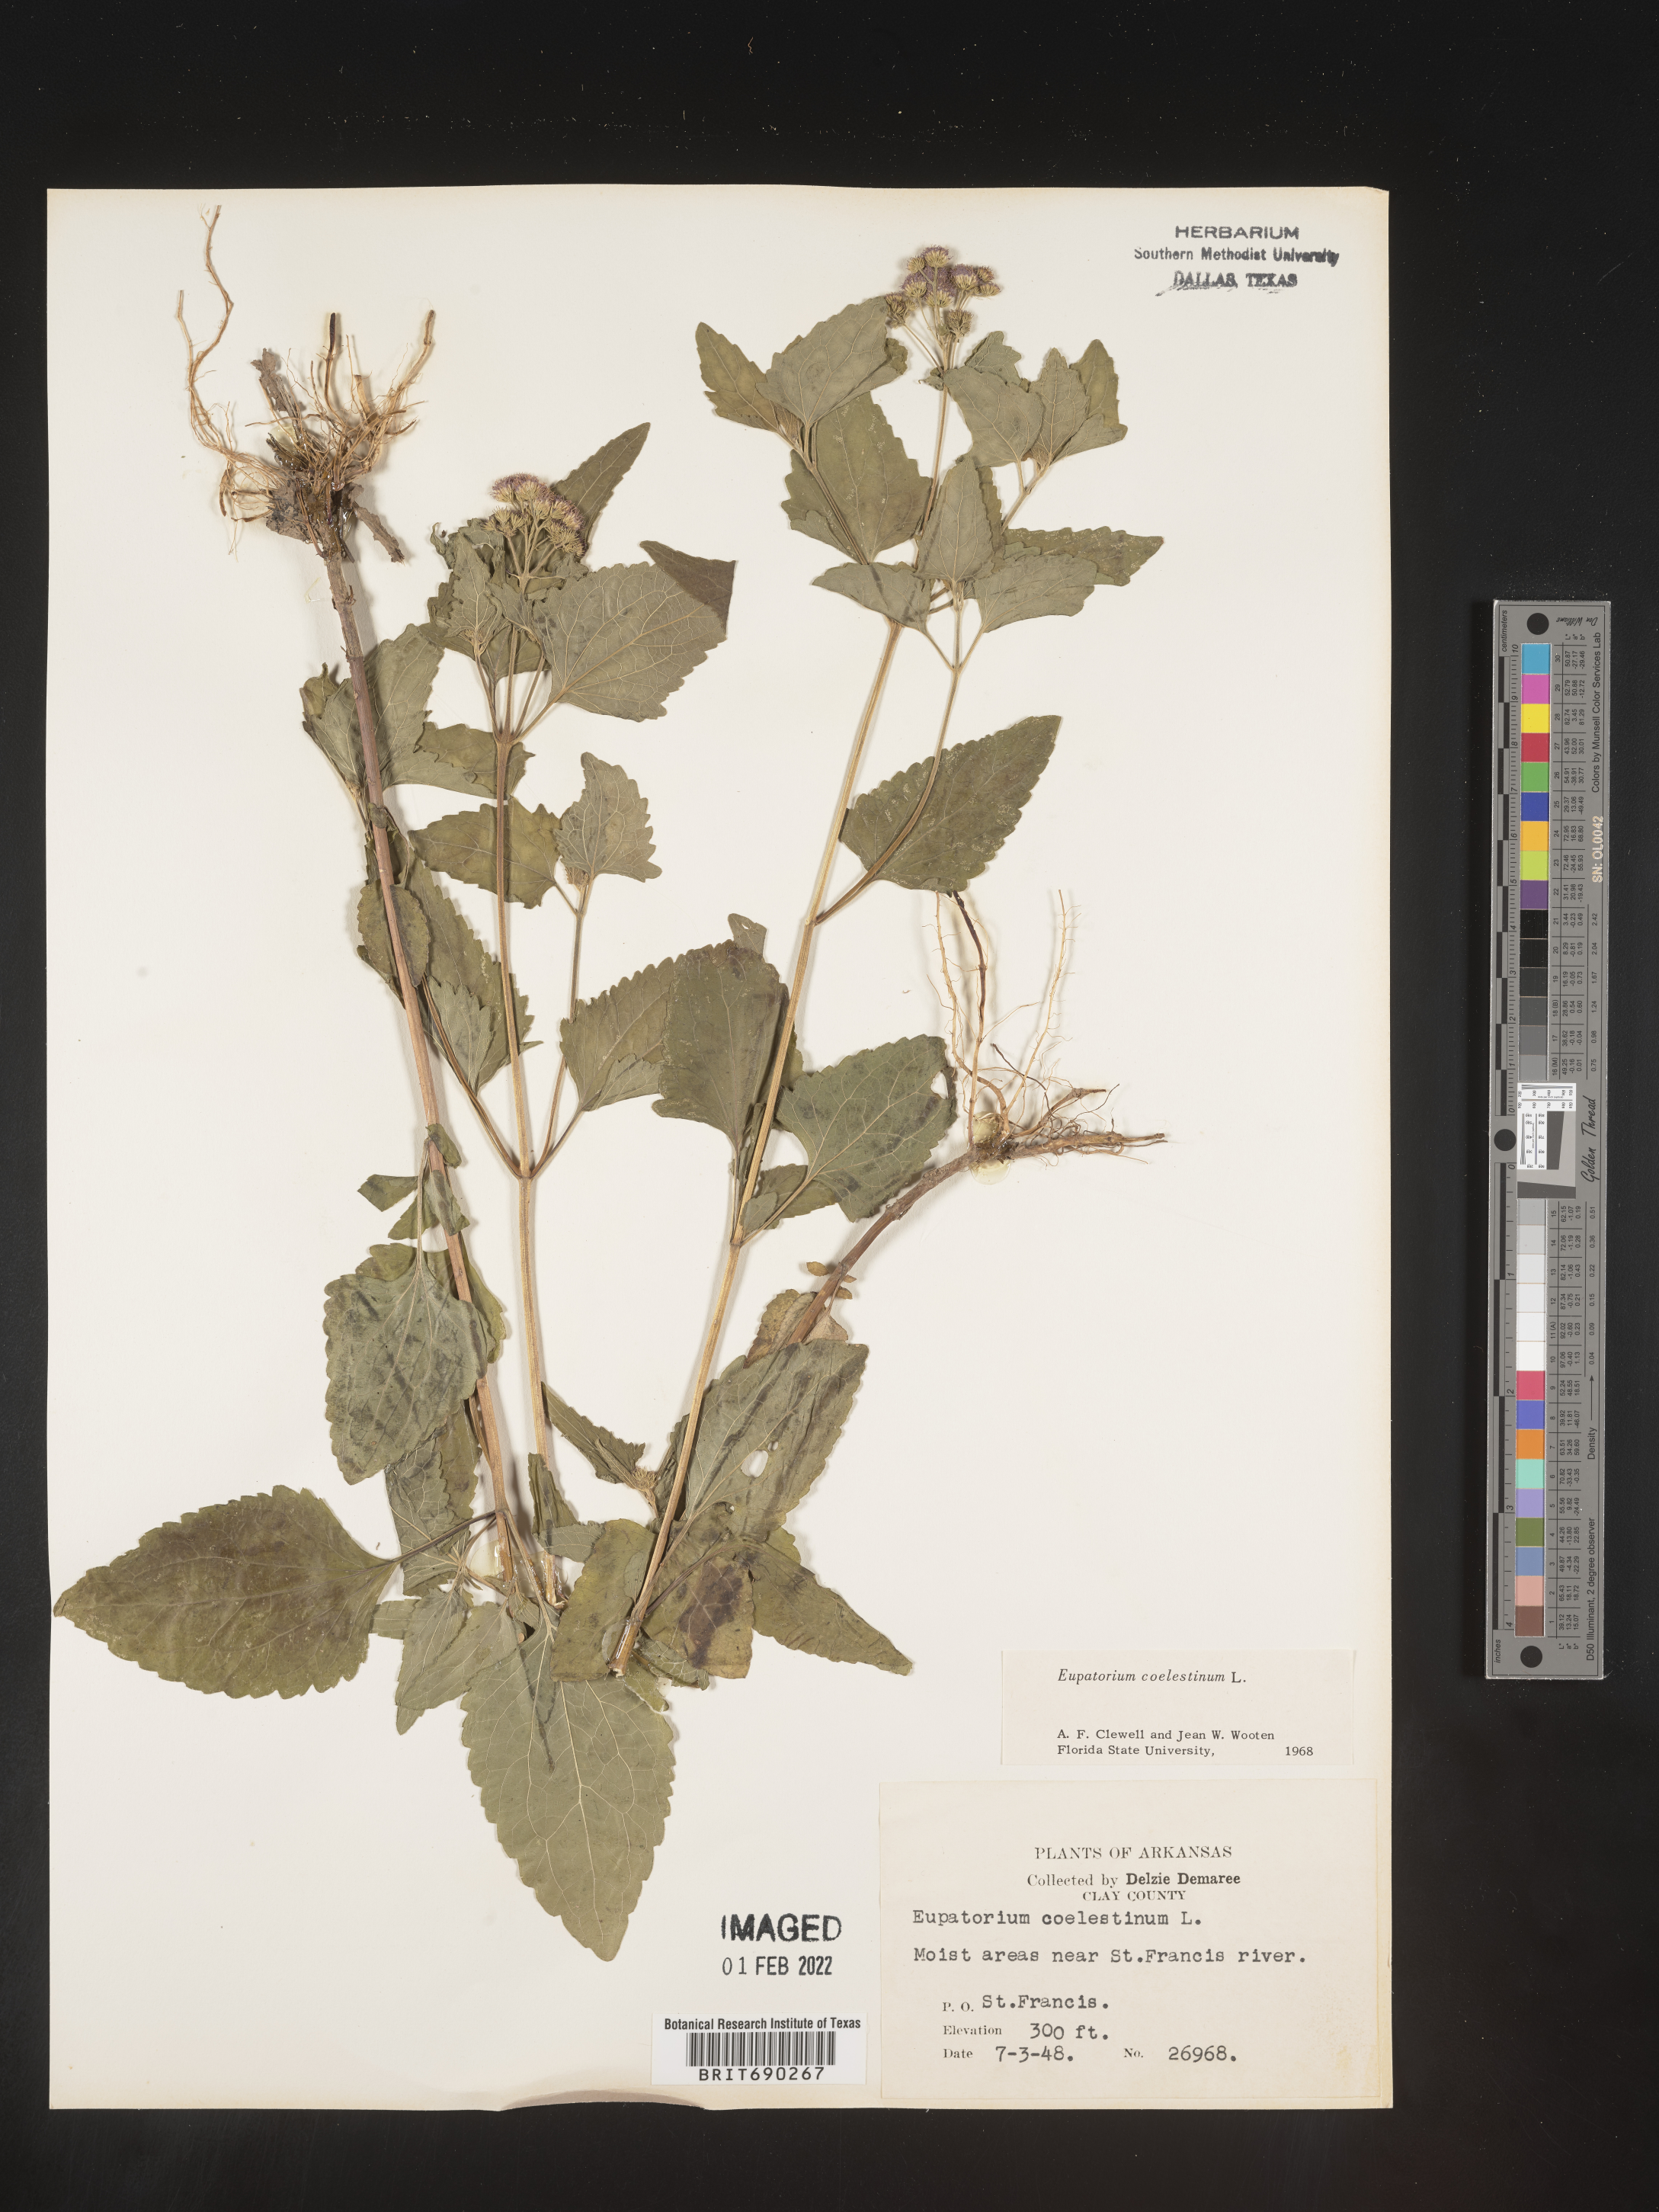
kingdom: Plantae
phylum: Tracheophyta
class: Magnoliopsida
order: Asterales
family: Asteraceae
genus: Conoclinium
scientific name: Conoclinium coelestinum
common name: Blue mistflower
